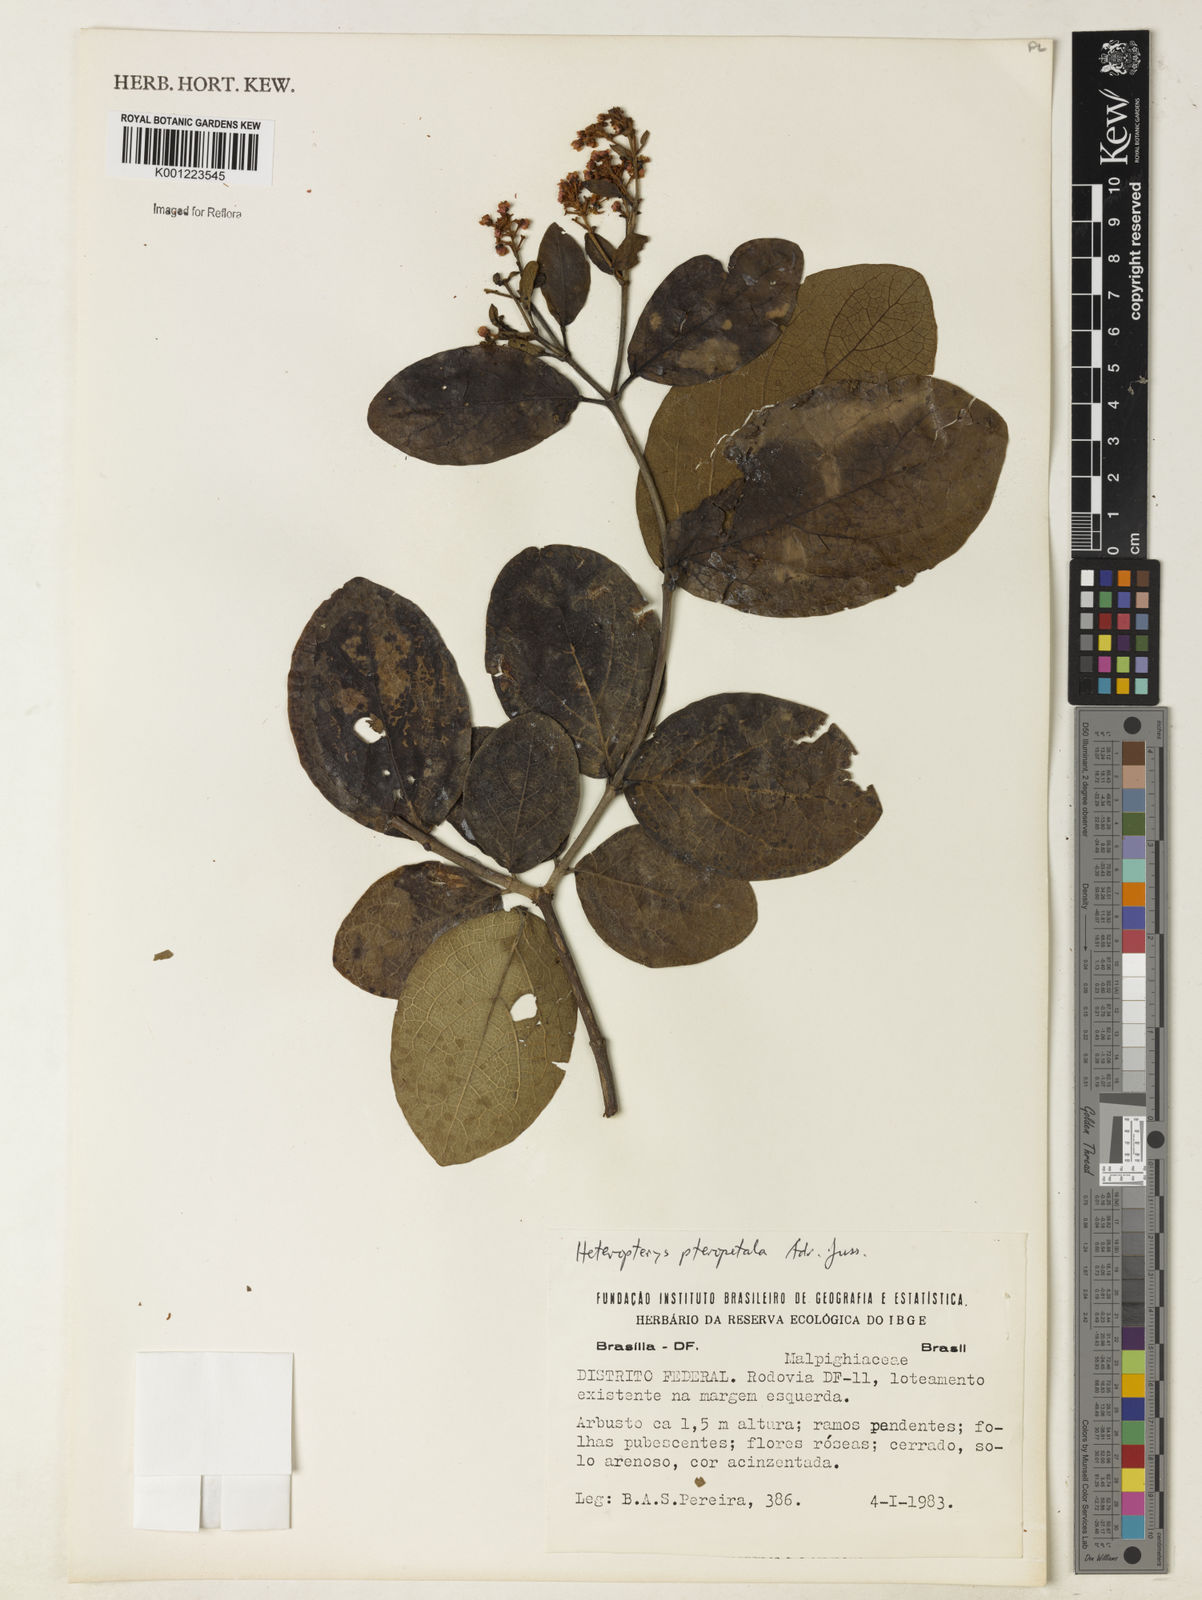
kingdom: Plantae
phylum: Tracheophyta
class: Magnoliopsida
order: Malpighiales
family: Malpighiaceae
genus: Heteropterys
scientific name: Heteropterys pteropetala
